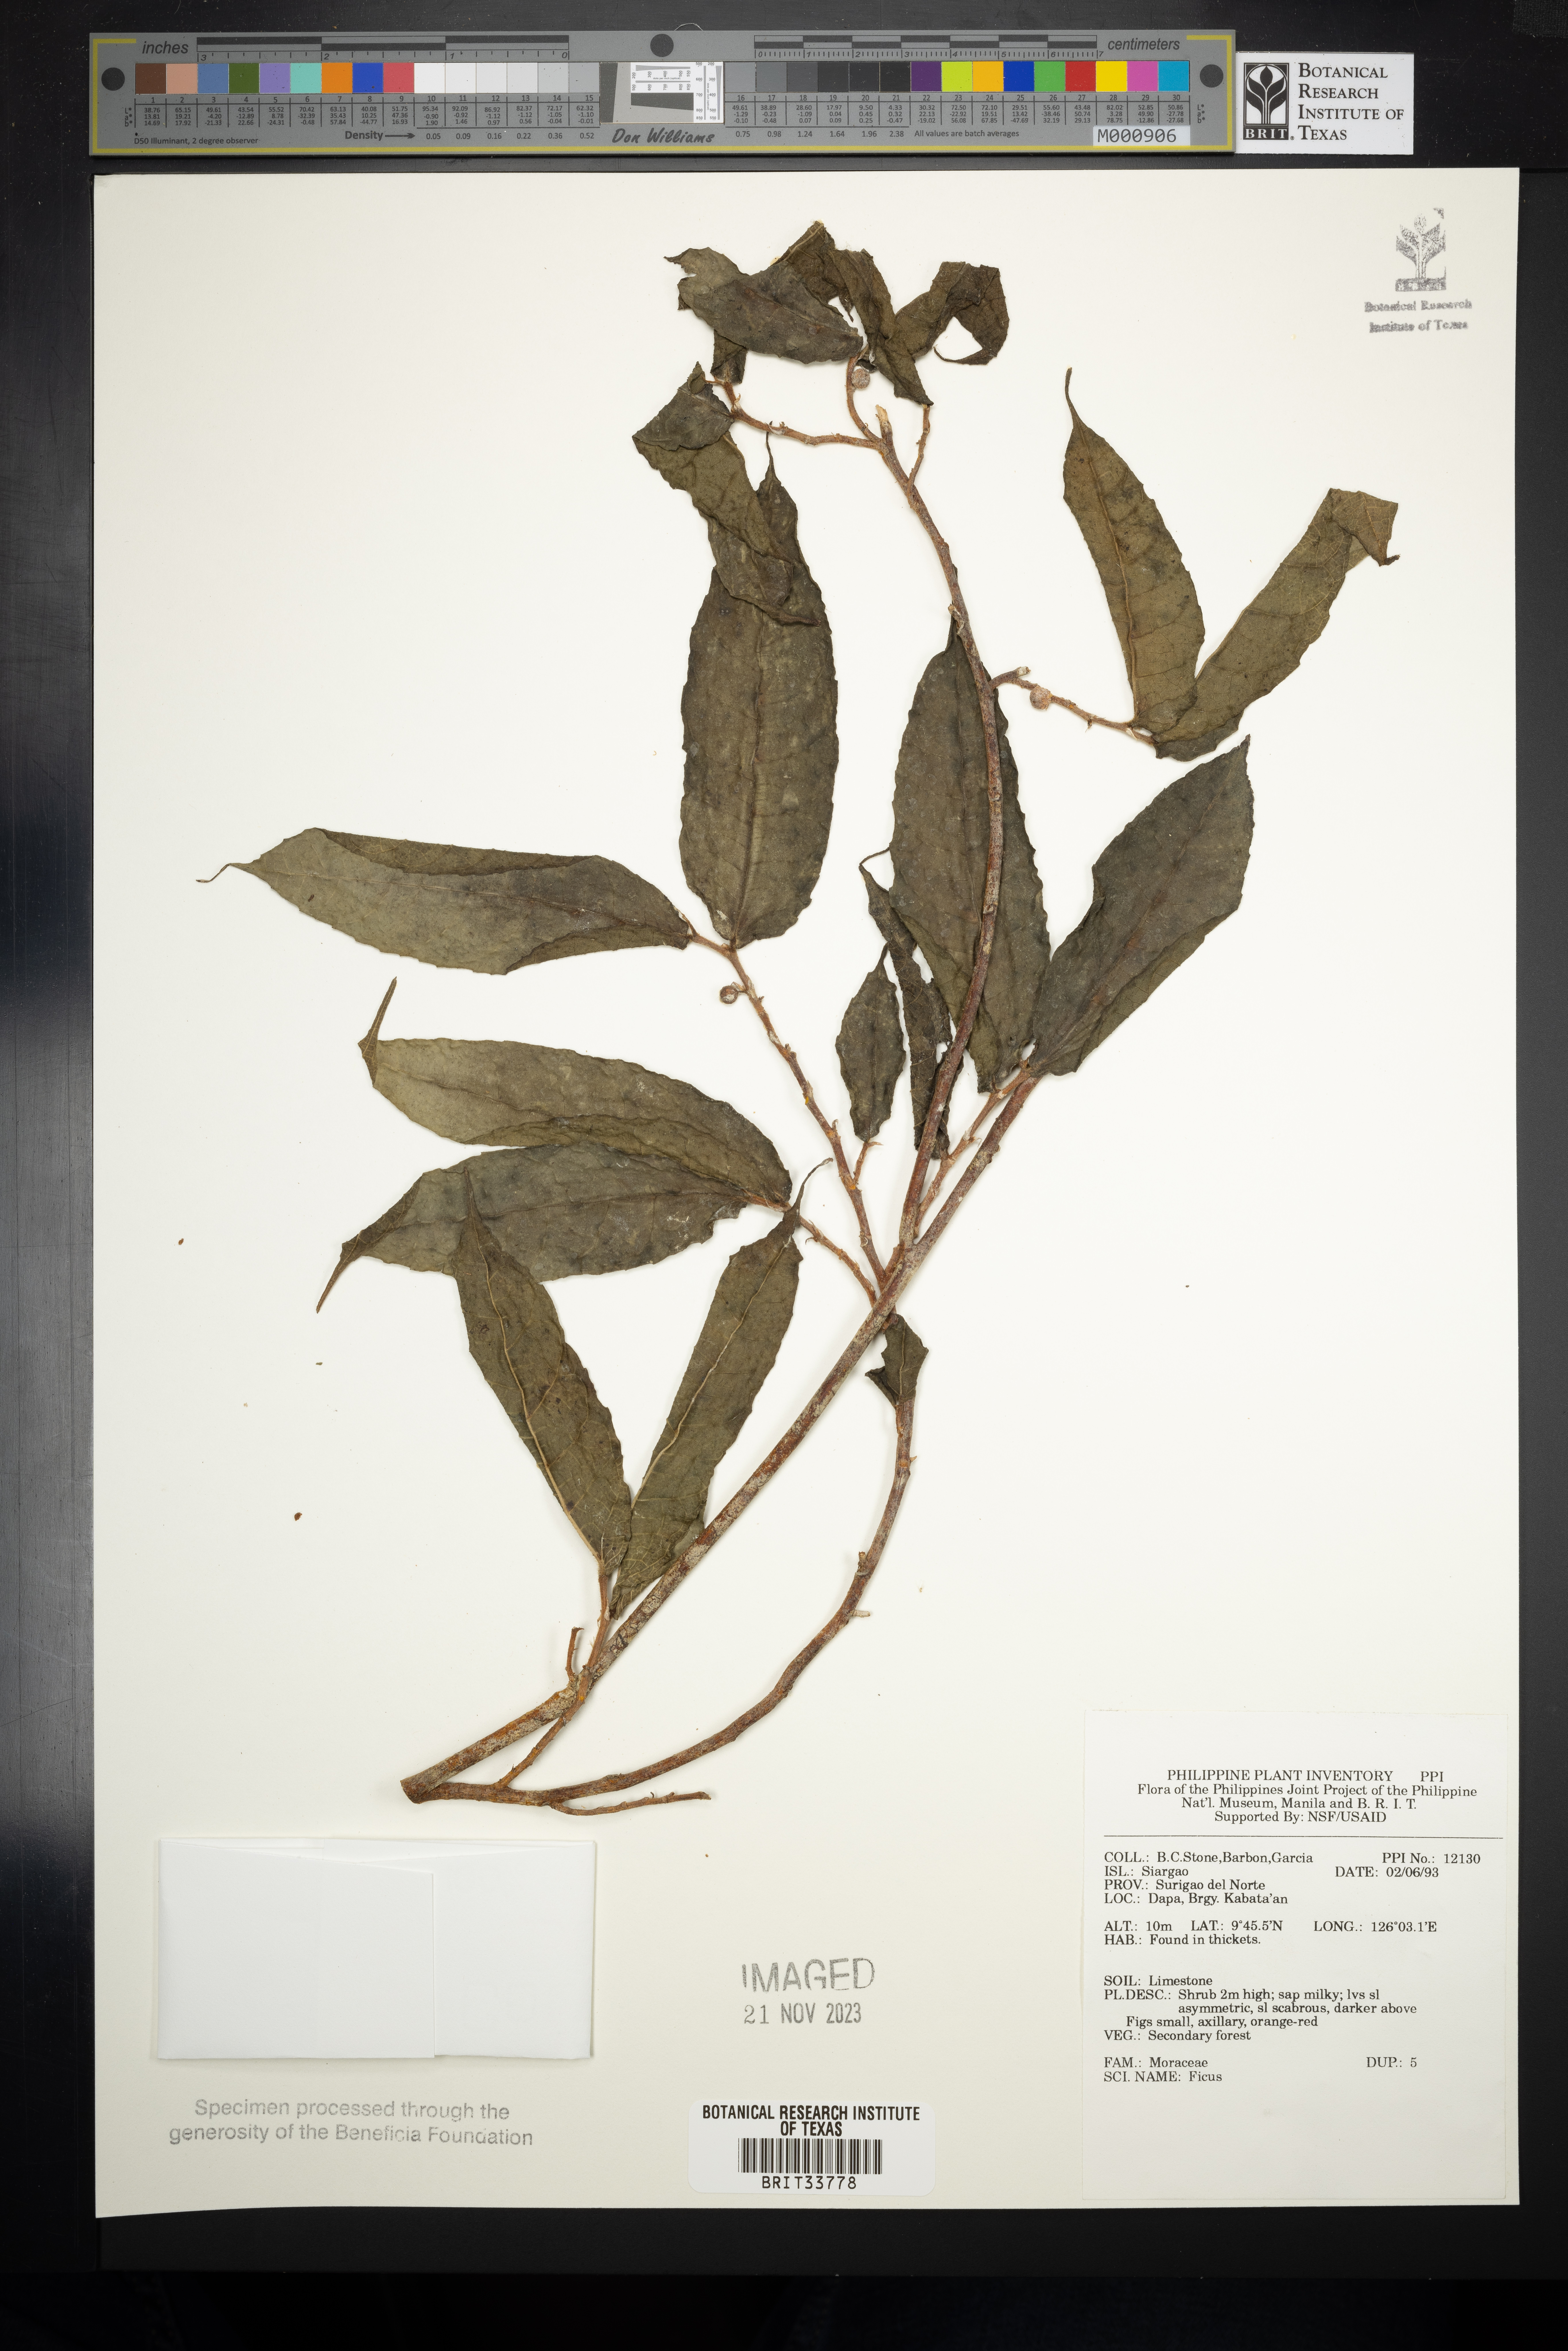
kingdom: Plantae
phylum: Tracheophyta
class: Magnoliopsida
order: Rosales
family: Moraceae
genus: Ficus
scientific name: Ficus
